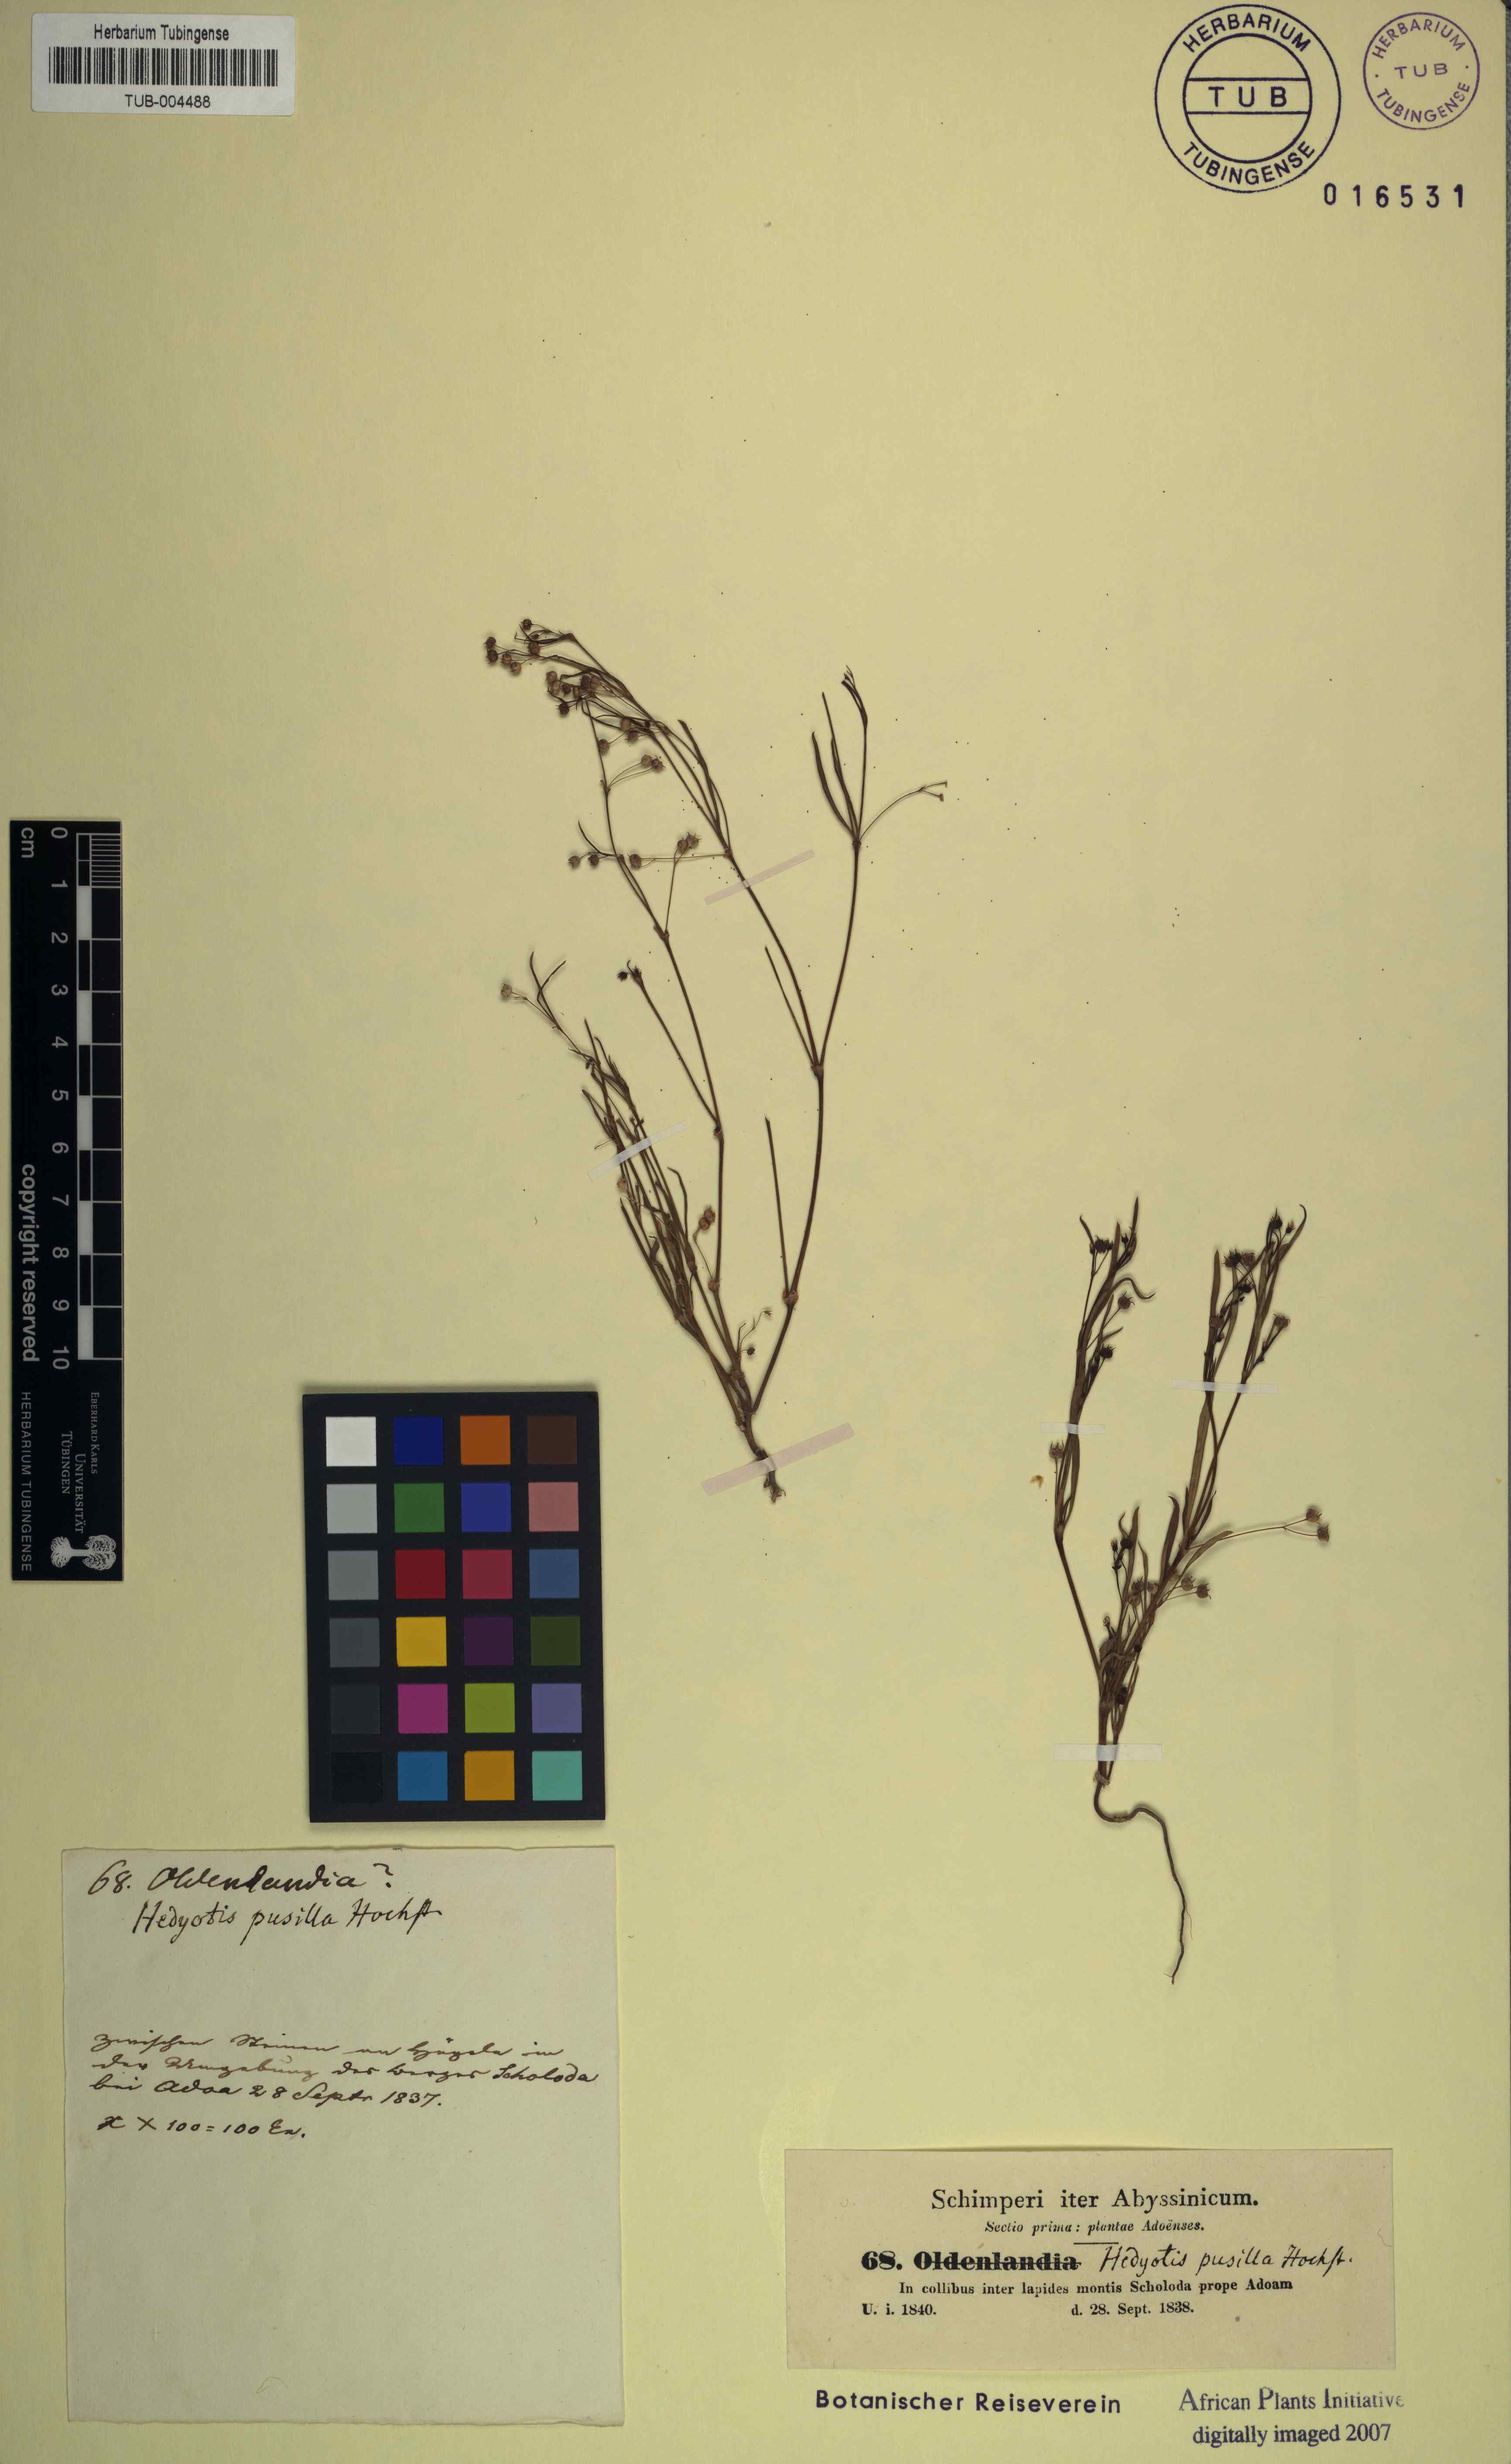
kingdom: Plantae
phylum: Tracheophyta
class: Magnoliopsida
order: Gentianales
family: Rubiaceae
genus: Oldenlandia
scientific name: Oldenlandia corymbosa
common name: Flat-top mille graines
